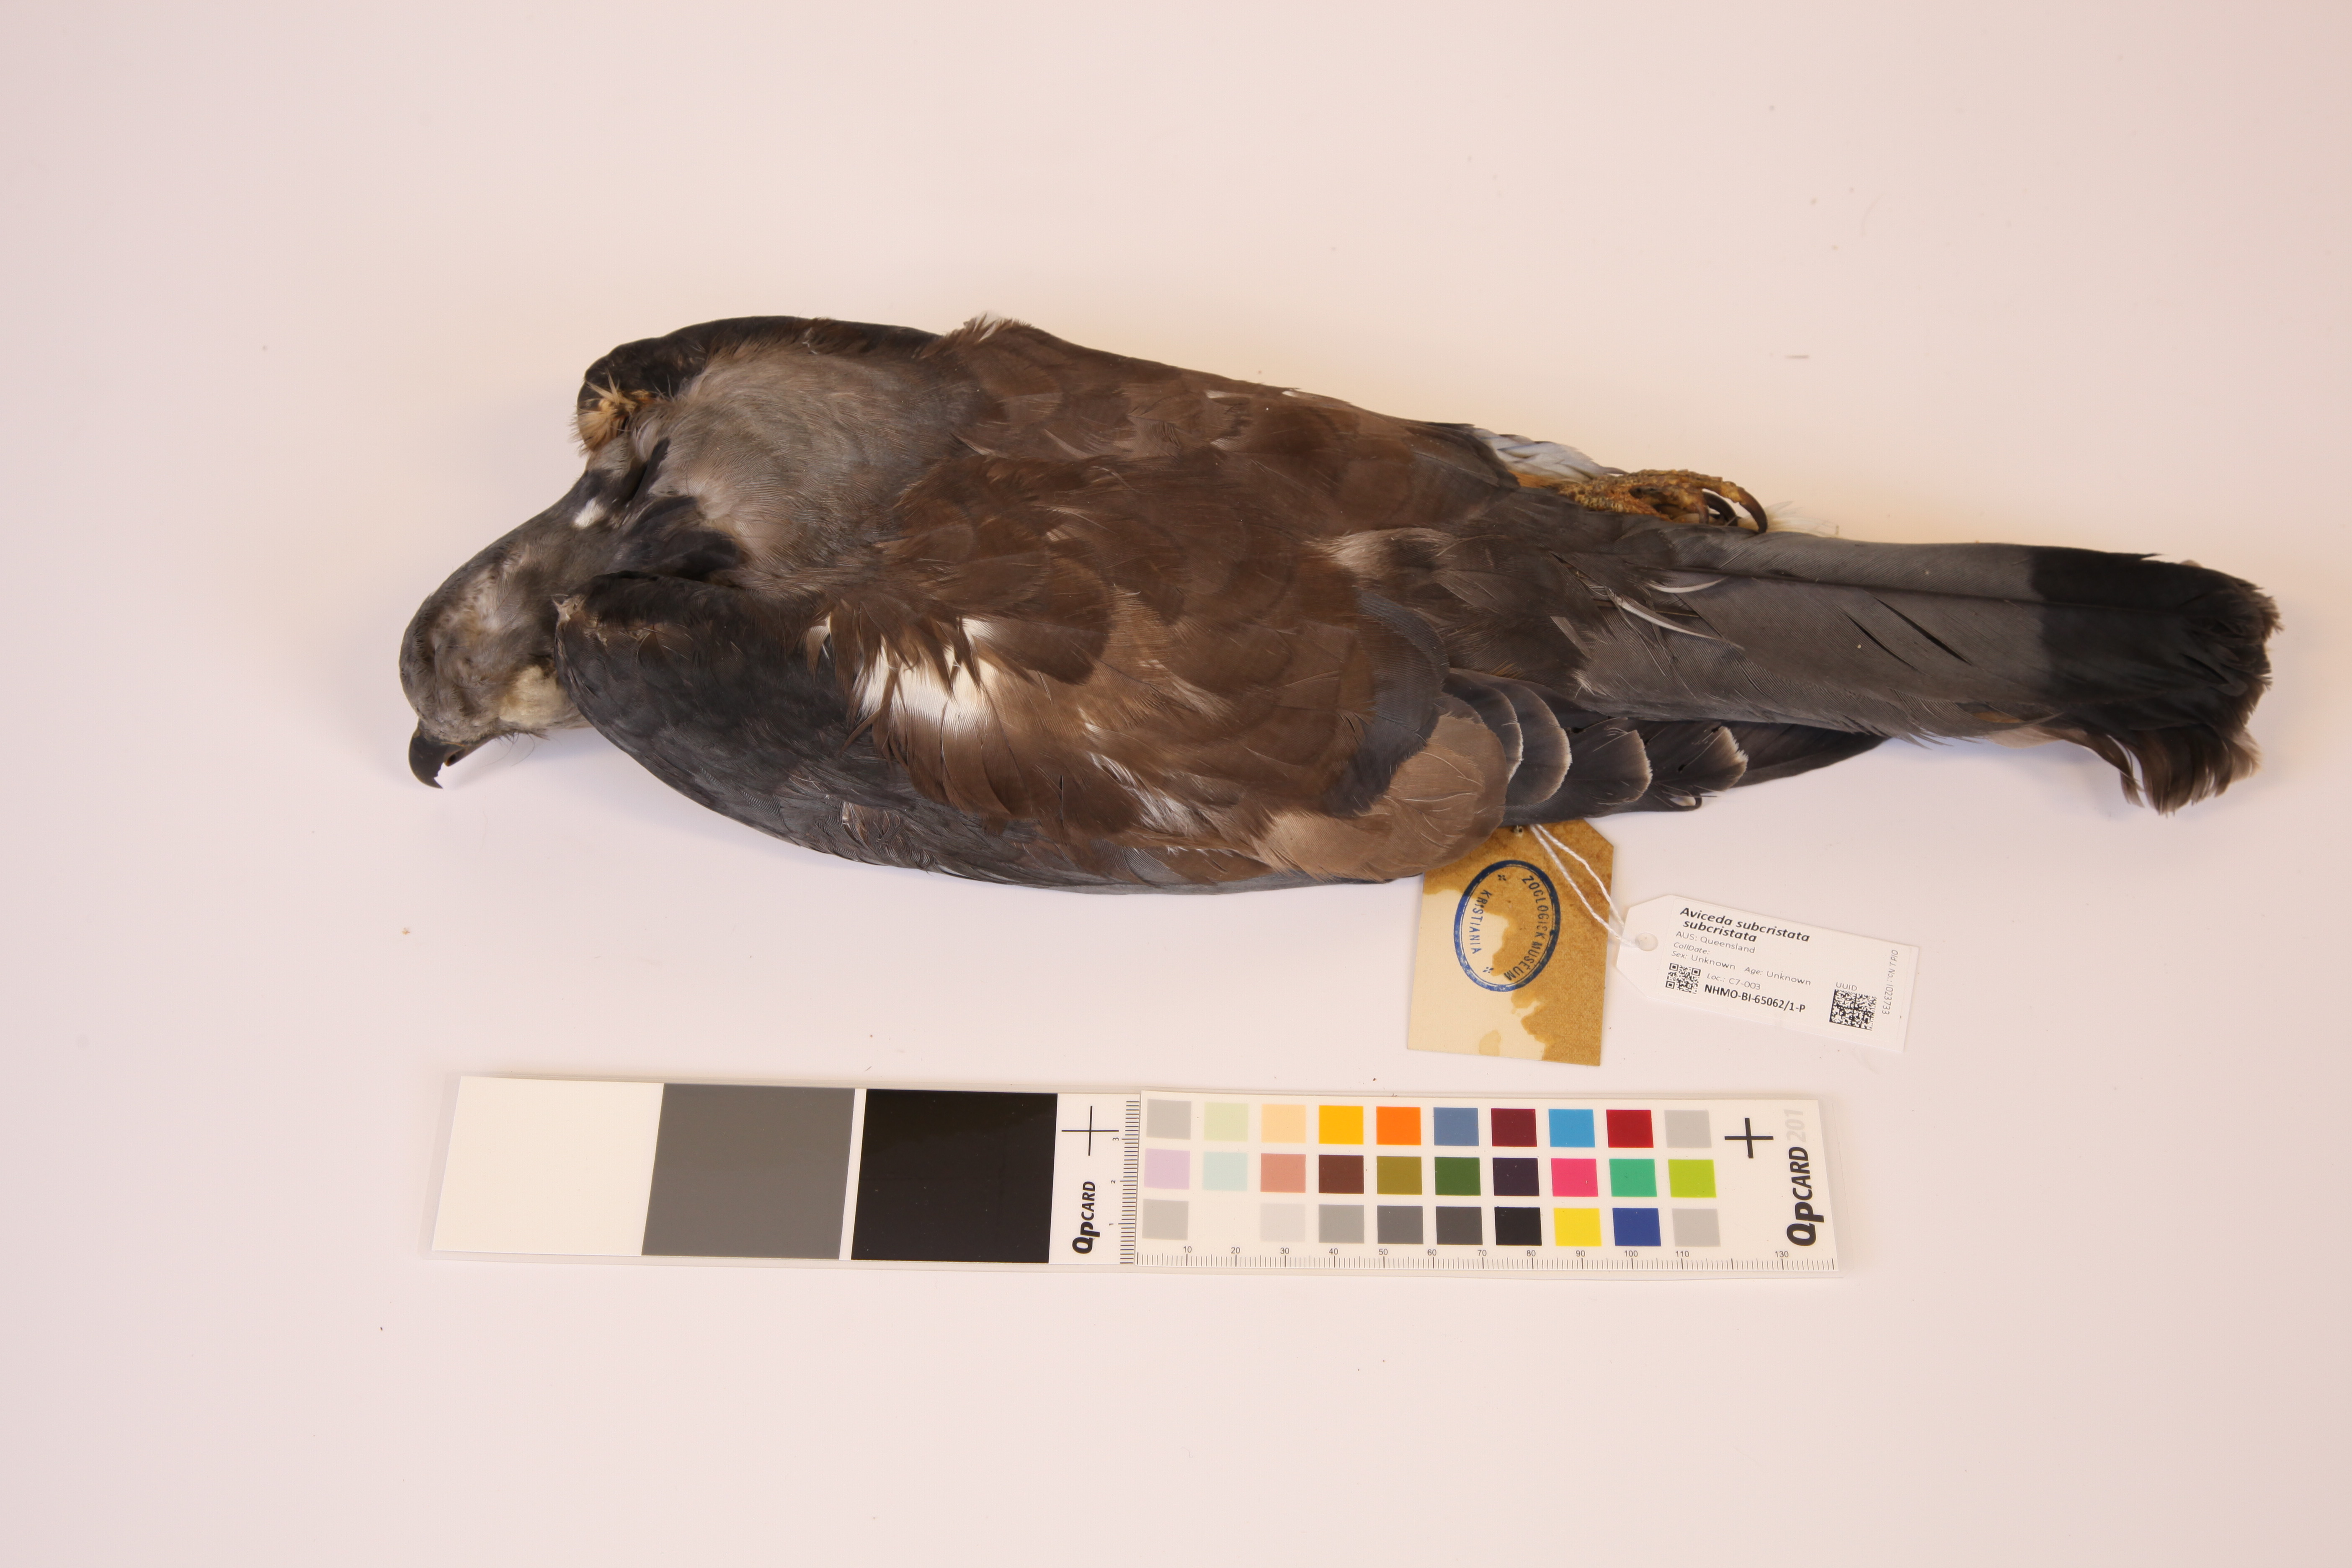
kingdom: Animalia
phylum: Chordata
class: Aves
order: Accipitriformes
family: Accipitridae
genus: Aviceda
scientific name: Aviceda subcristata
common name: Pacific baza
